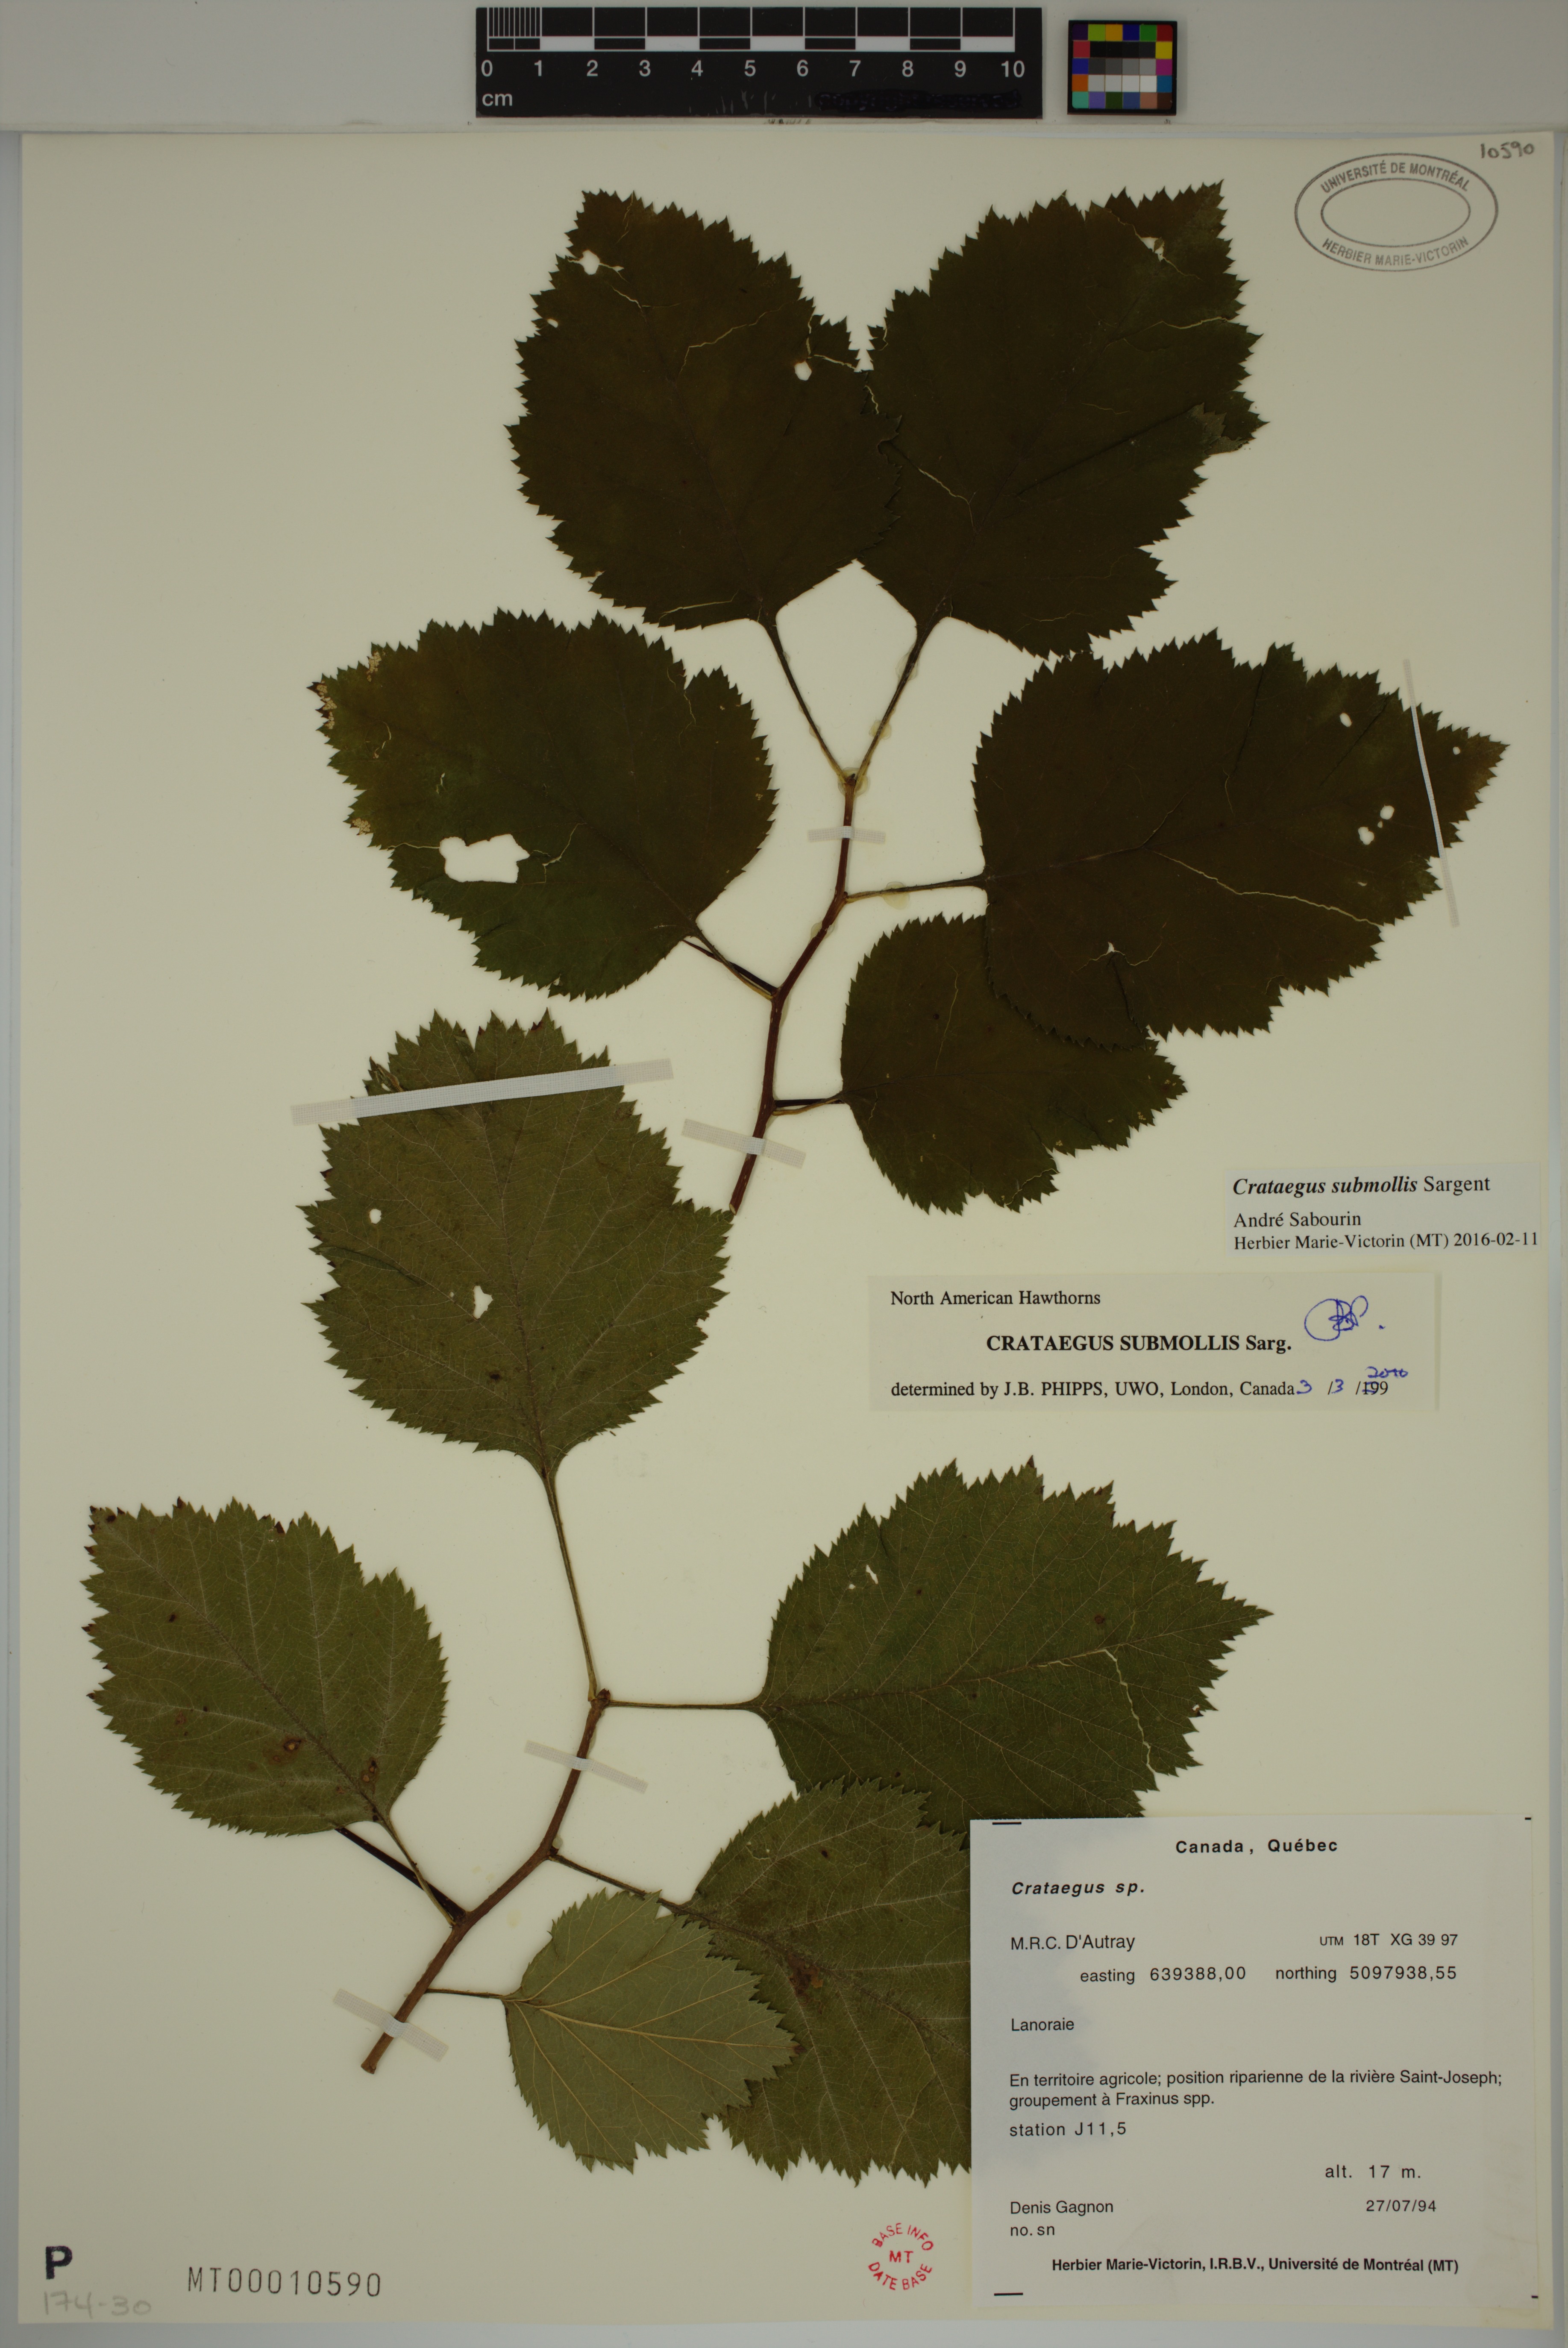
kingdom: Plantae
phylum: Tracheophyta
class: Magnoliopsida
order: Rosales
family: Rosaceae
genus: Crataegus
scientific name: Crataegus submollis
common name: Hairy cockspurthorn
